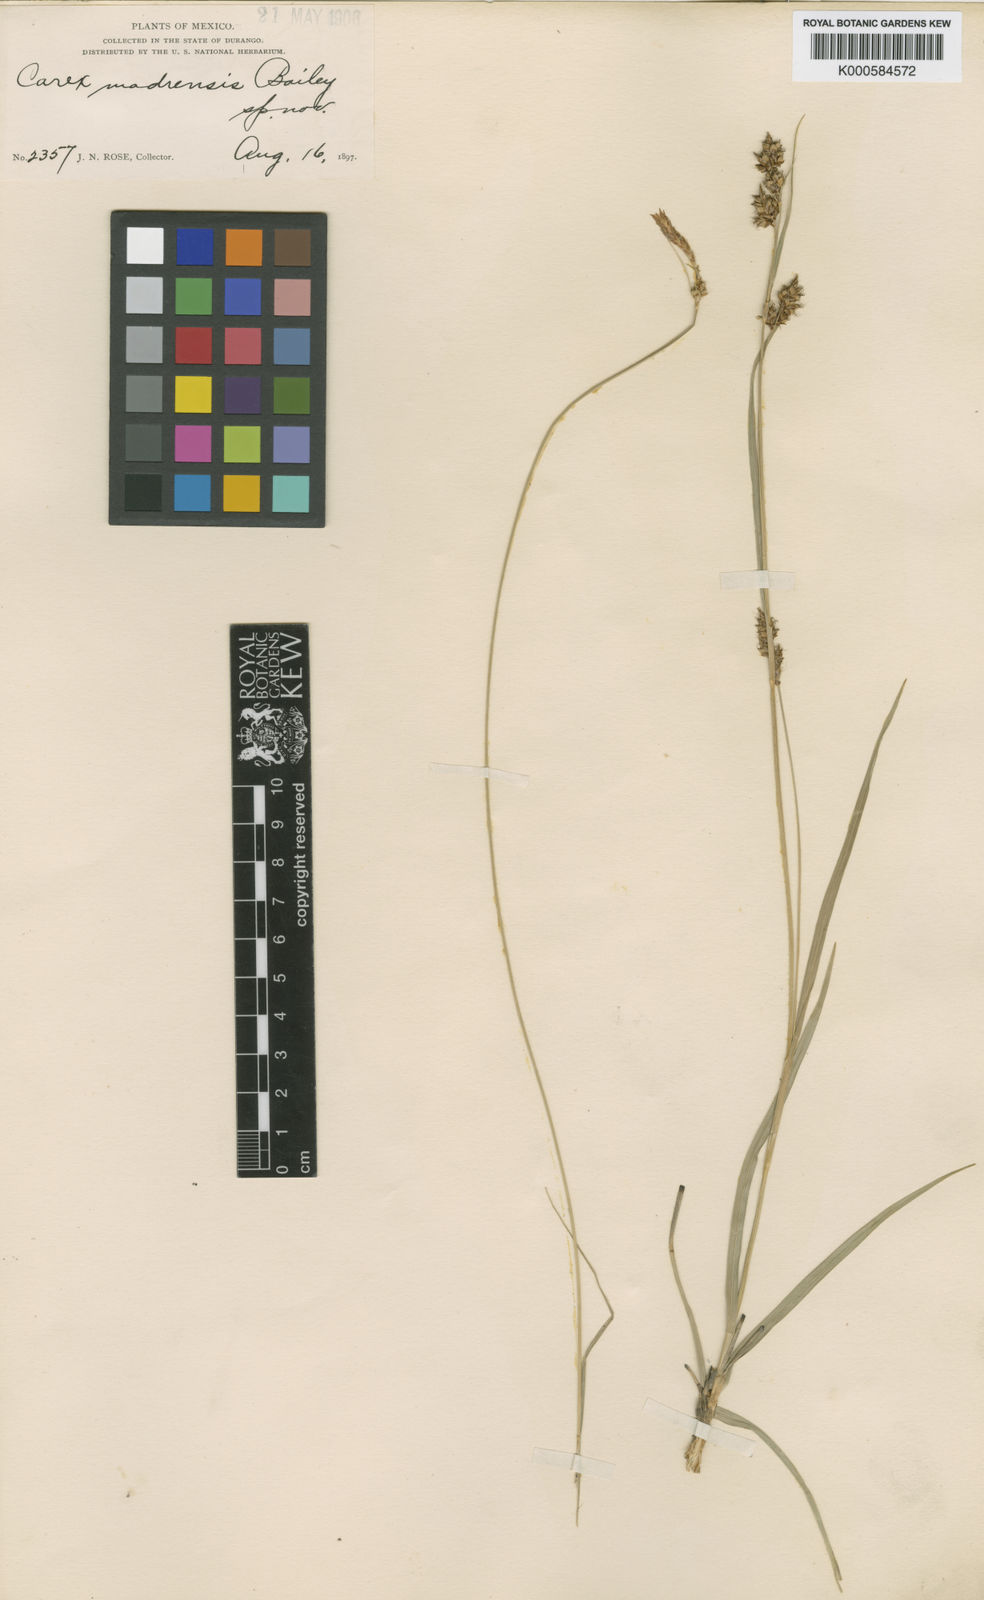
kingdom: Plantae
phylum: Tracheophyta
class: Liliopsida
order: Poales
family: Cyperaceae
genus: Carex
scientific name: Carex madrensis
